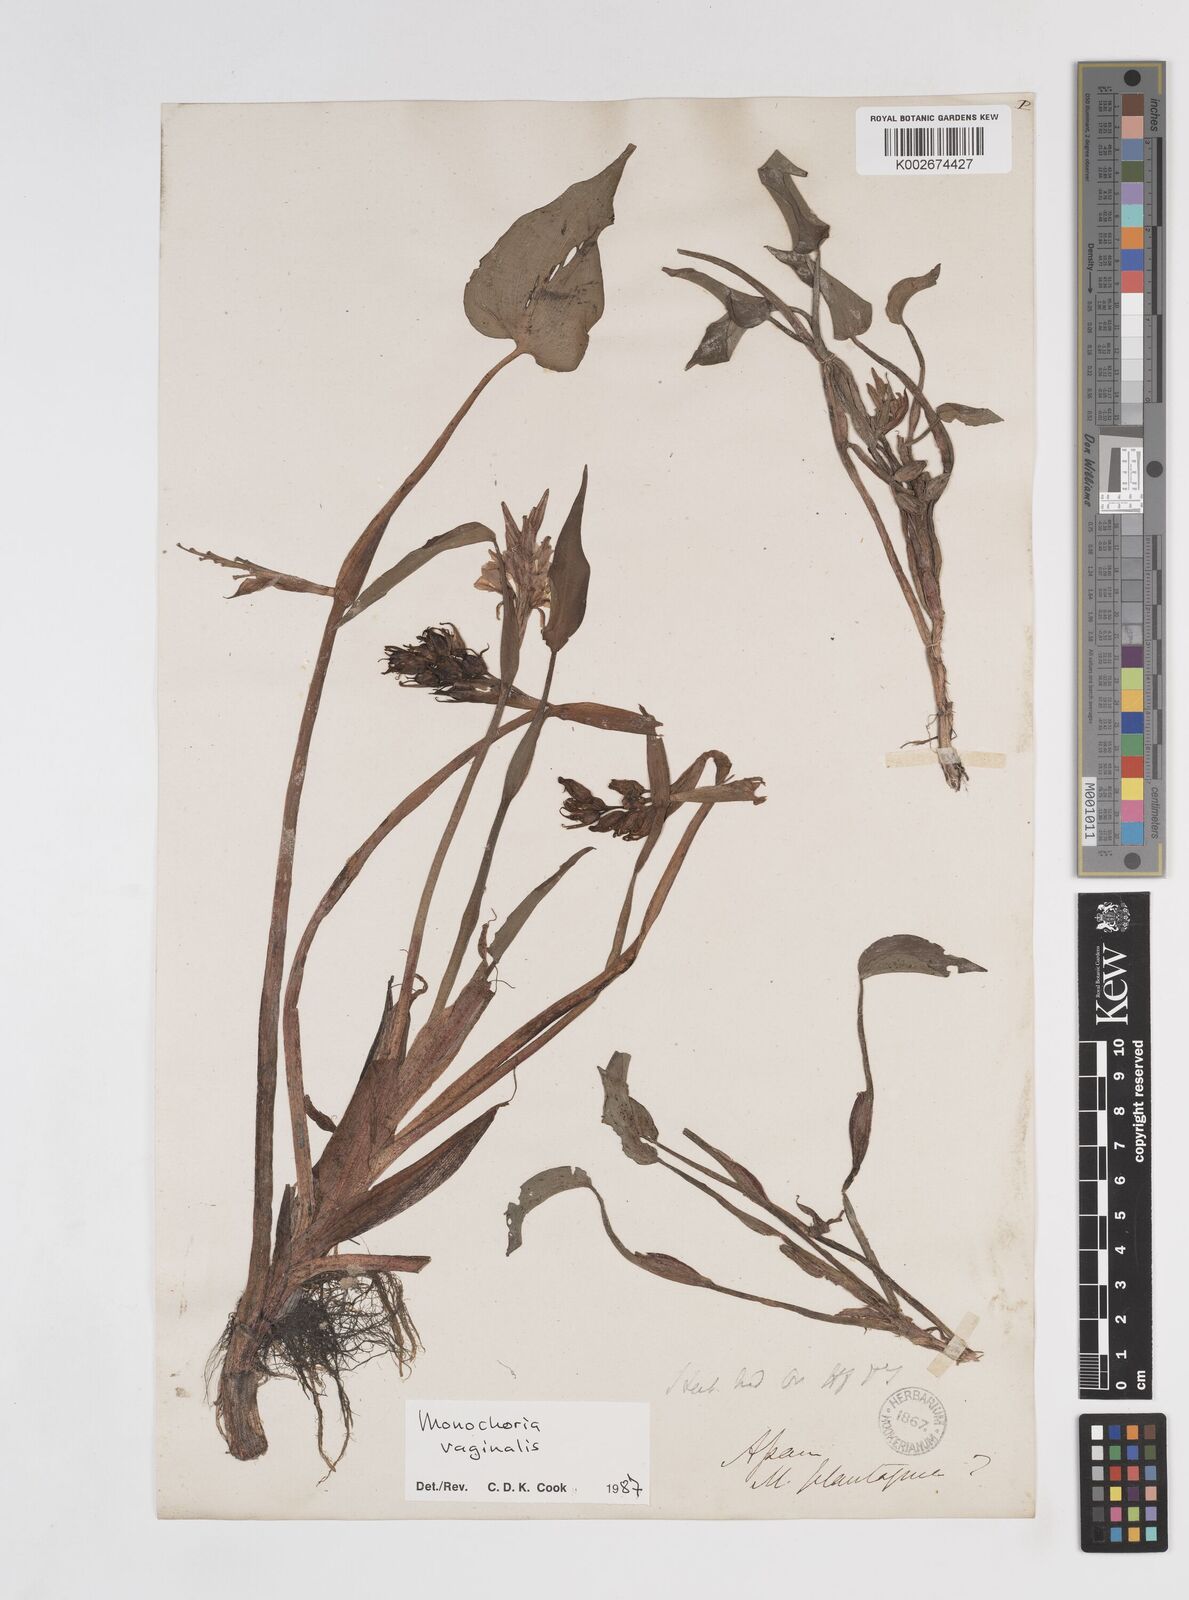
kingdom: Plantae
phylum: Tracheophyta
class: Liliopsida
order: Commelinales
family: Pontederiaceae
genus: Pontederia
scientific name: Pontederia vaginalis
